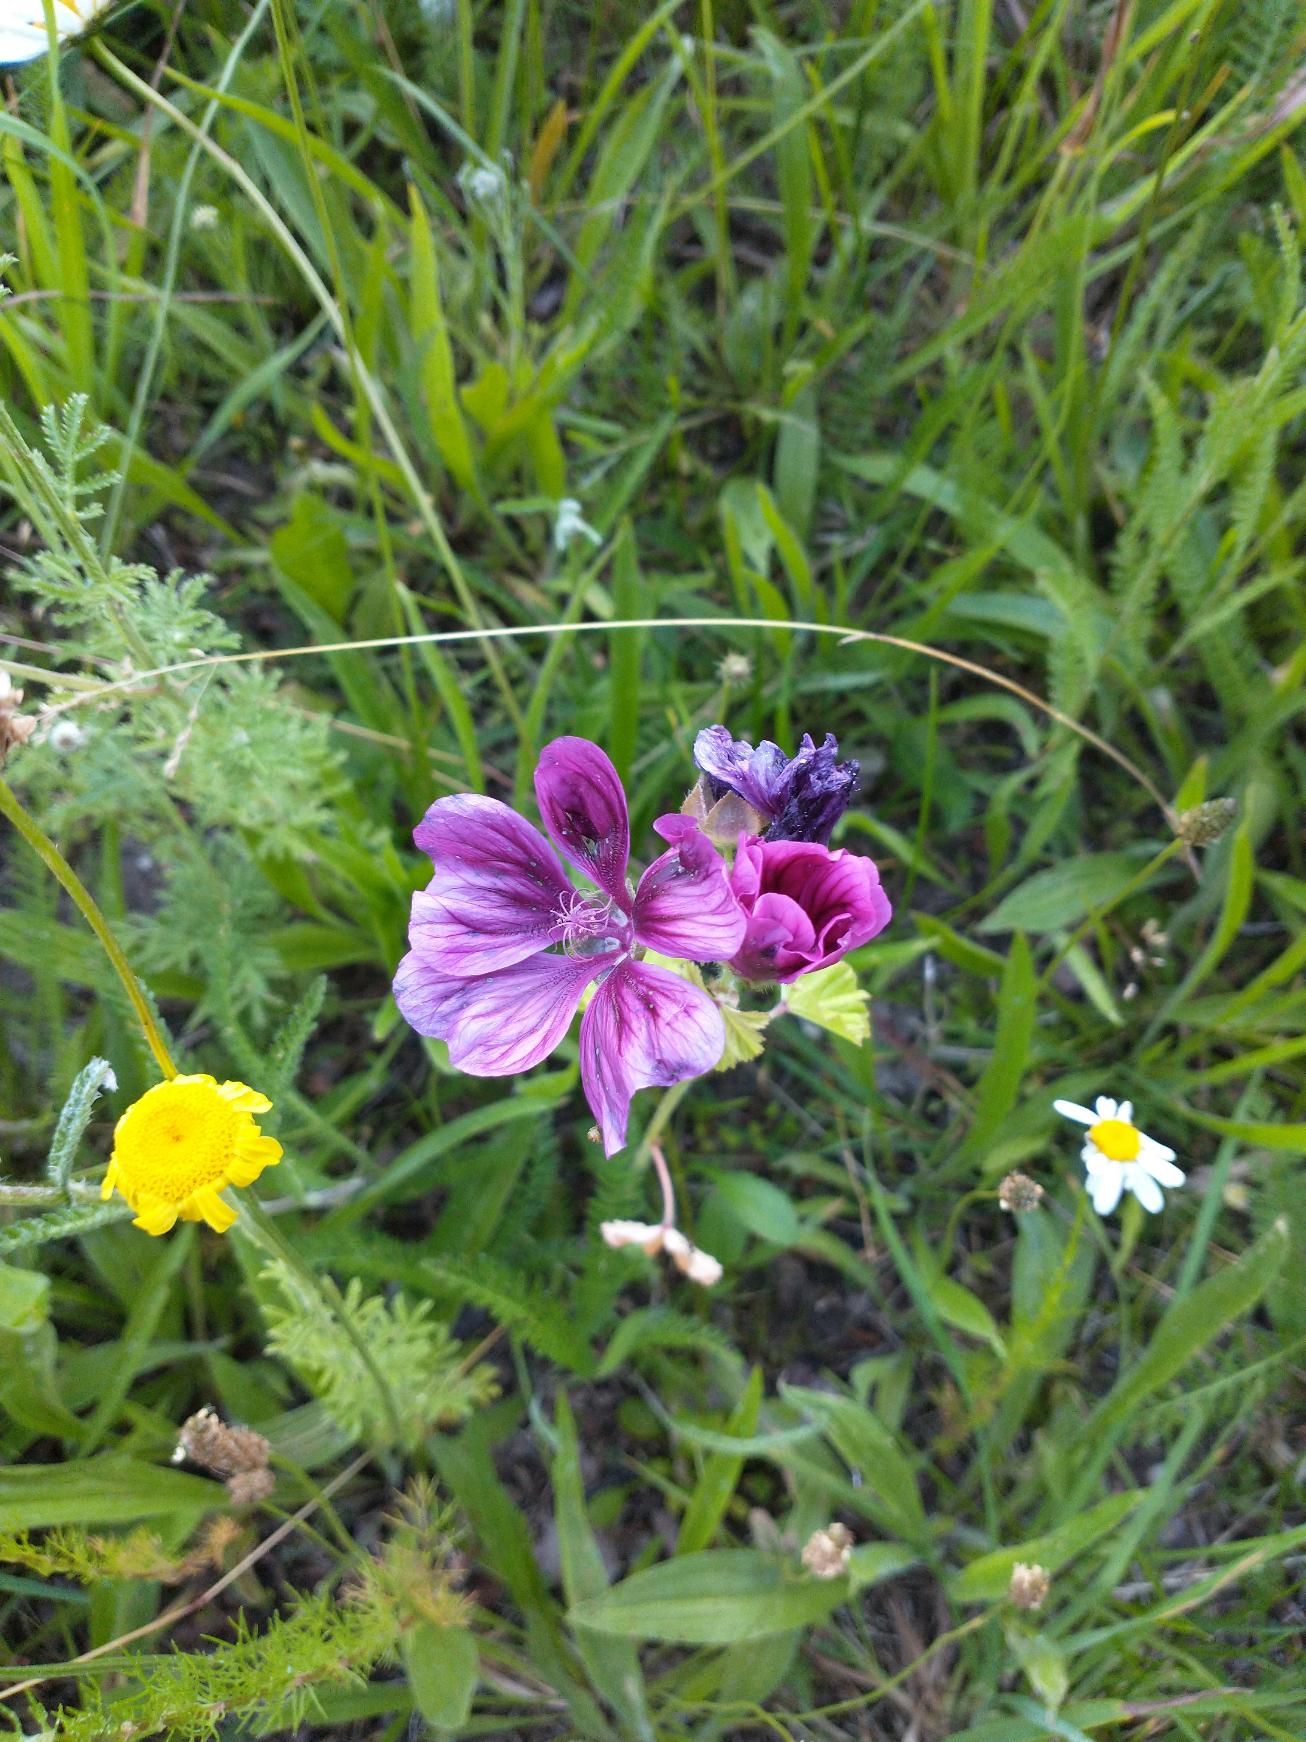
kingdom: Plantae
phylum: Tracheophyta
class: Magnoliopsida
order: Malvales
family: Malvaceae
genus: Malva
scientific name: Malva sylvestris
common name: Almindelig katost
